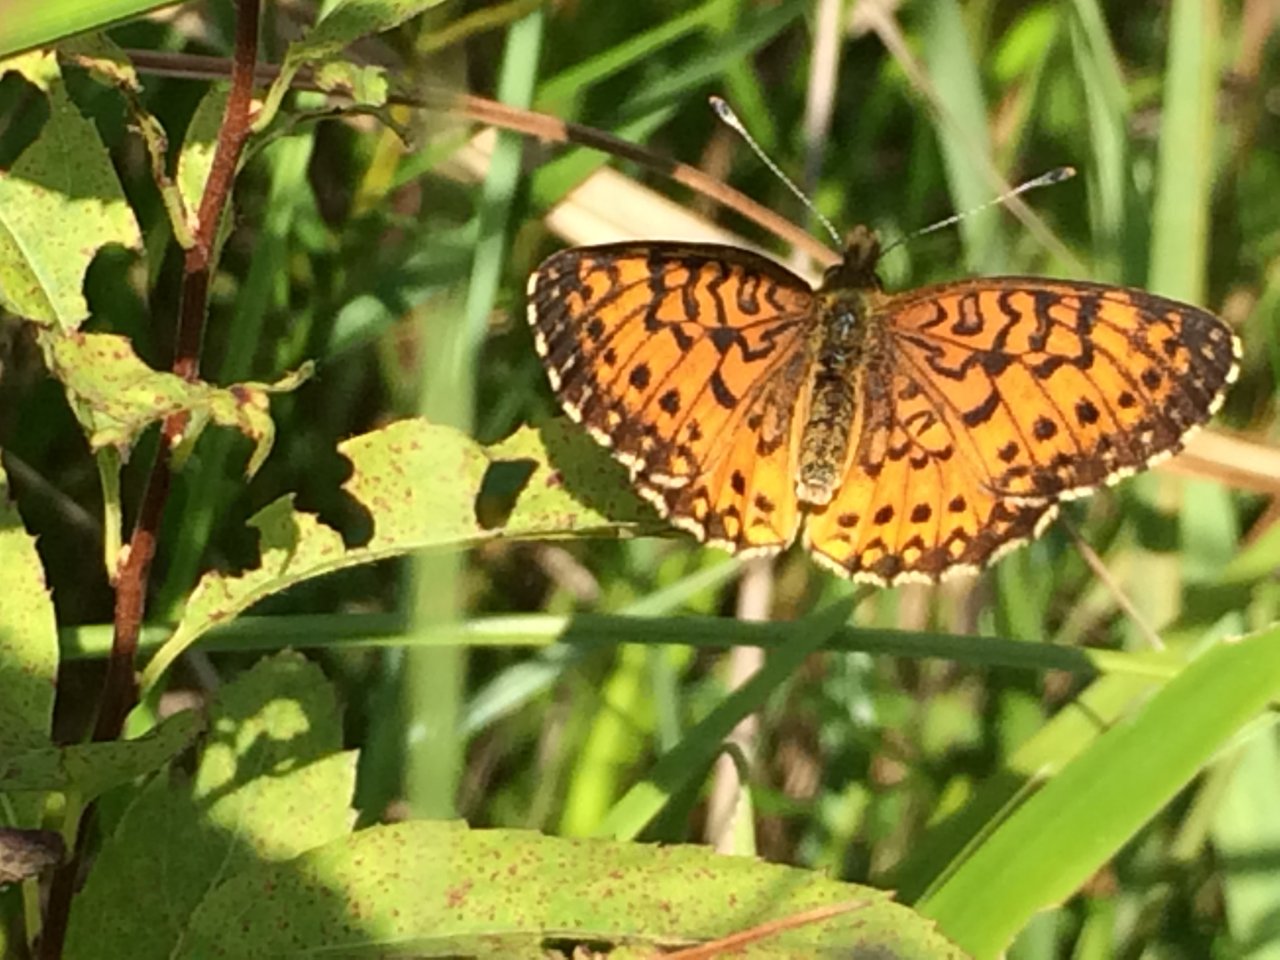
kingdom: Animalia
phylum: Arthropoda
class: Insecta
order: Lepidoptera
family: Nymphalidae
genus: Boloria
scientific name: Boloria selene
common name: Silver-bordered Fritillary
